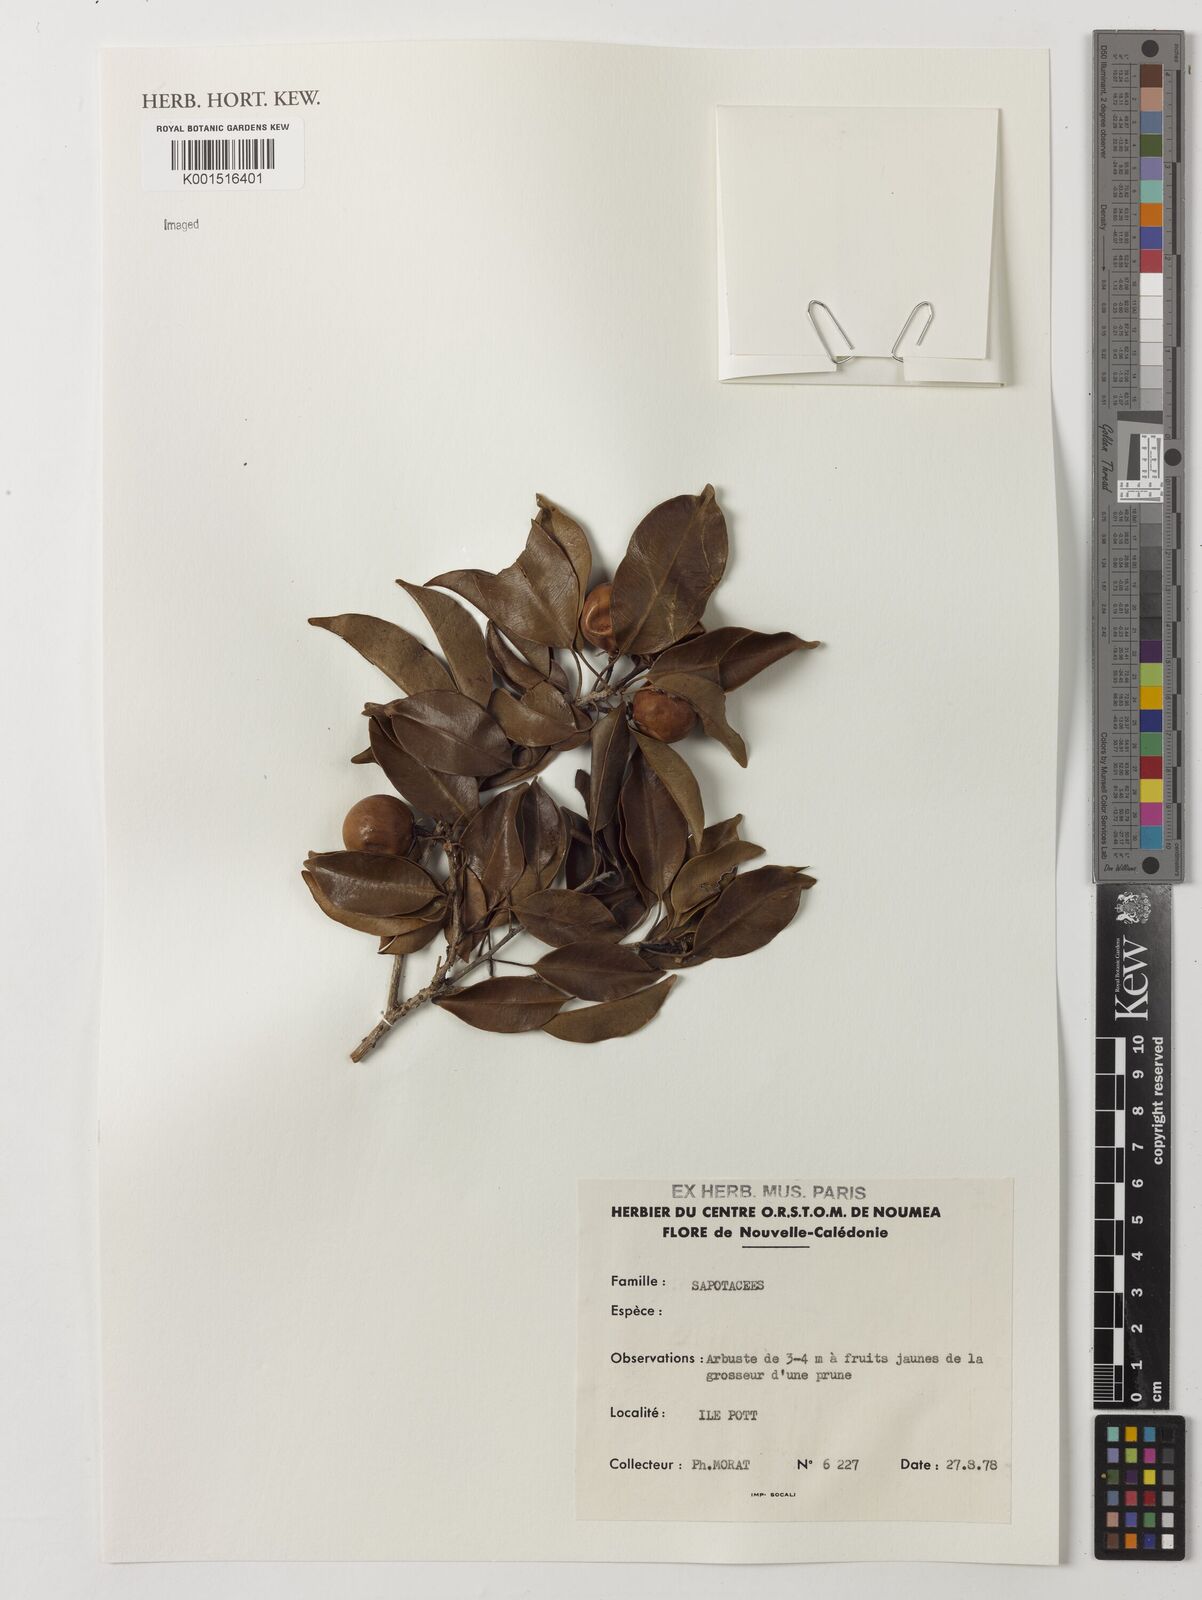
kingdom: Plantae
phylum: Tracheophyta
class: Magnoliopsida
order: Ericales
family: Sapotaceae
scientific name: Sapotaceae
